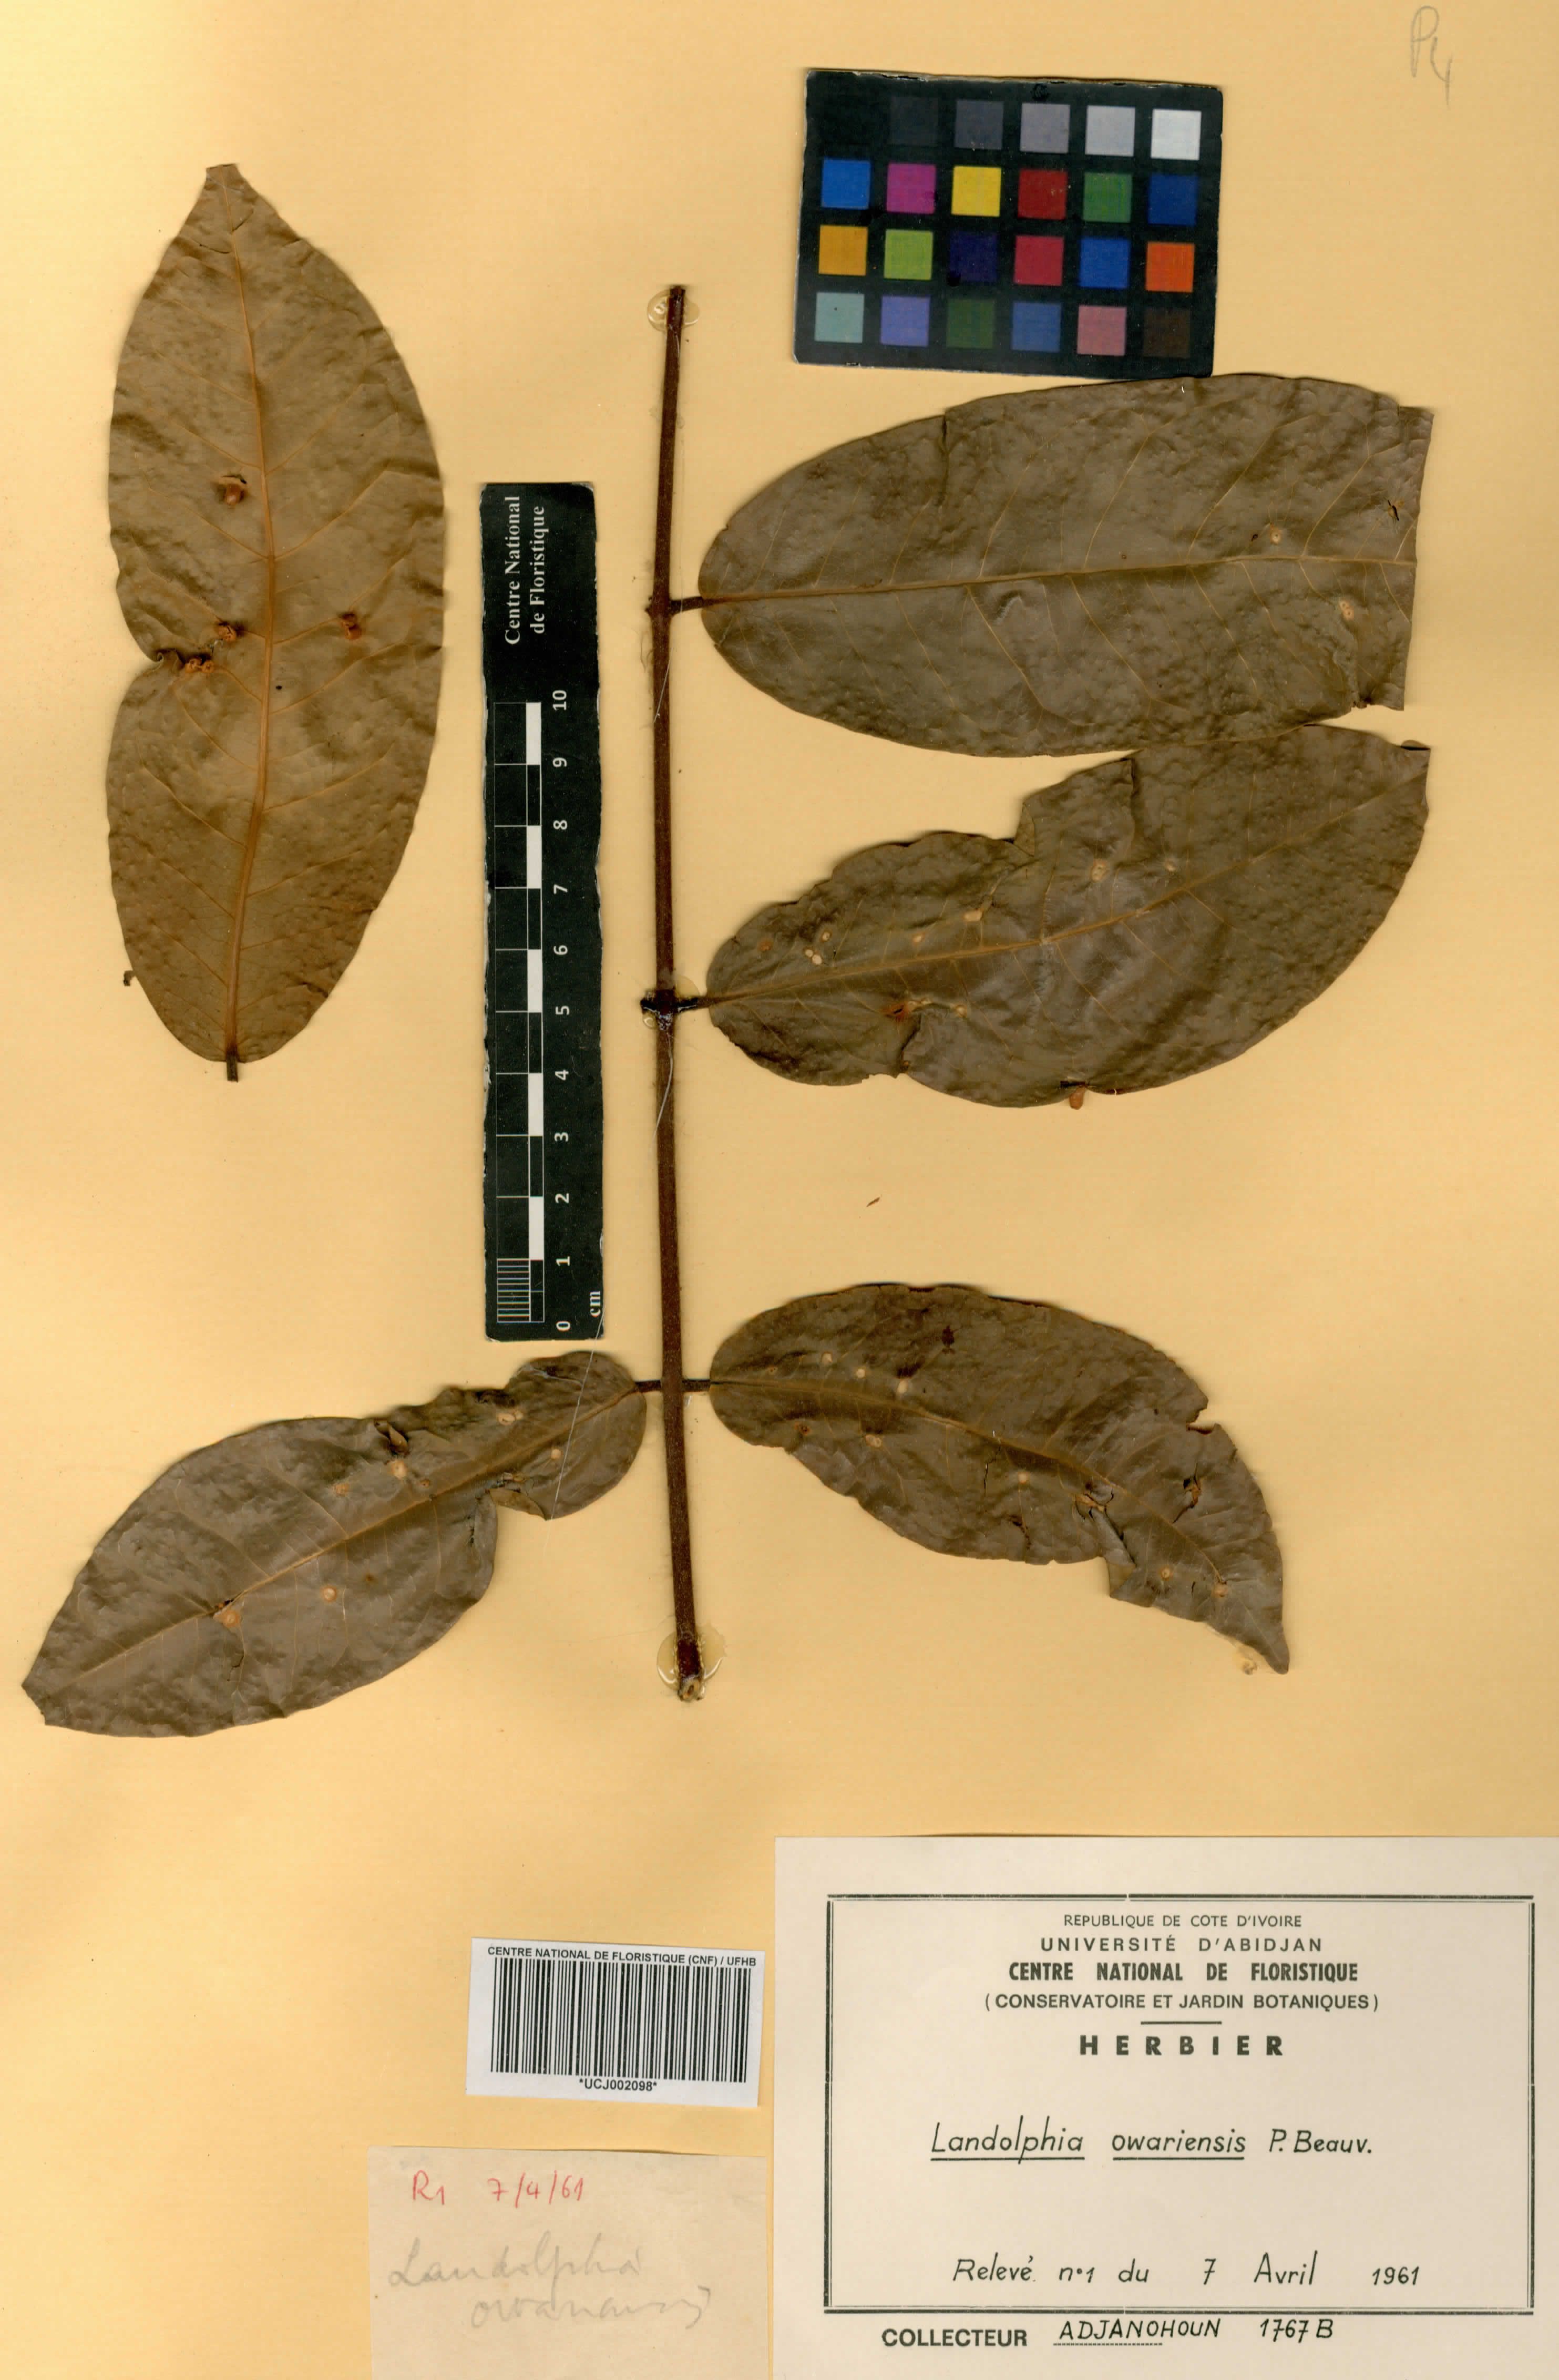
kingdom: Plantae
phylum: Tracheophyta
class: Magnoliopsida
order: Gentianales
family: Apocynaceae
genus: Landolphia
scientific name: Landolphia owariensis
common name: White-ball-rubber
